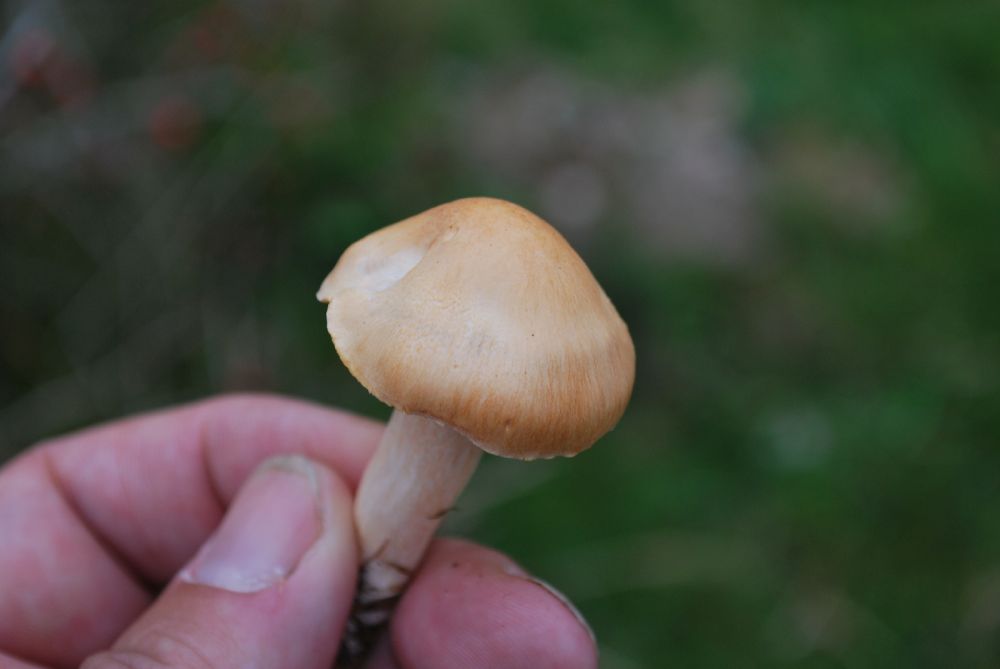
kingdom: Fungi
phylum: Basidiomycota
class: Agaricomycetes
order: Agaricales
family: Hygrophoraceae
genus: Cuphophyllus
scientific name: Cuphophyllus pratensis
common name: eng-vokshat
